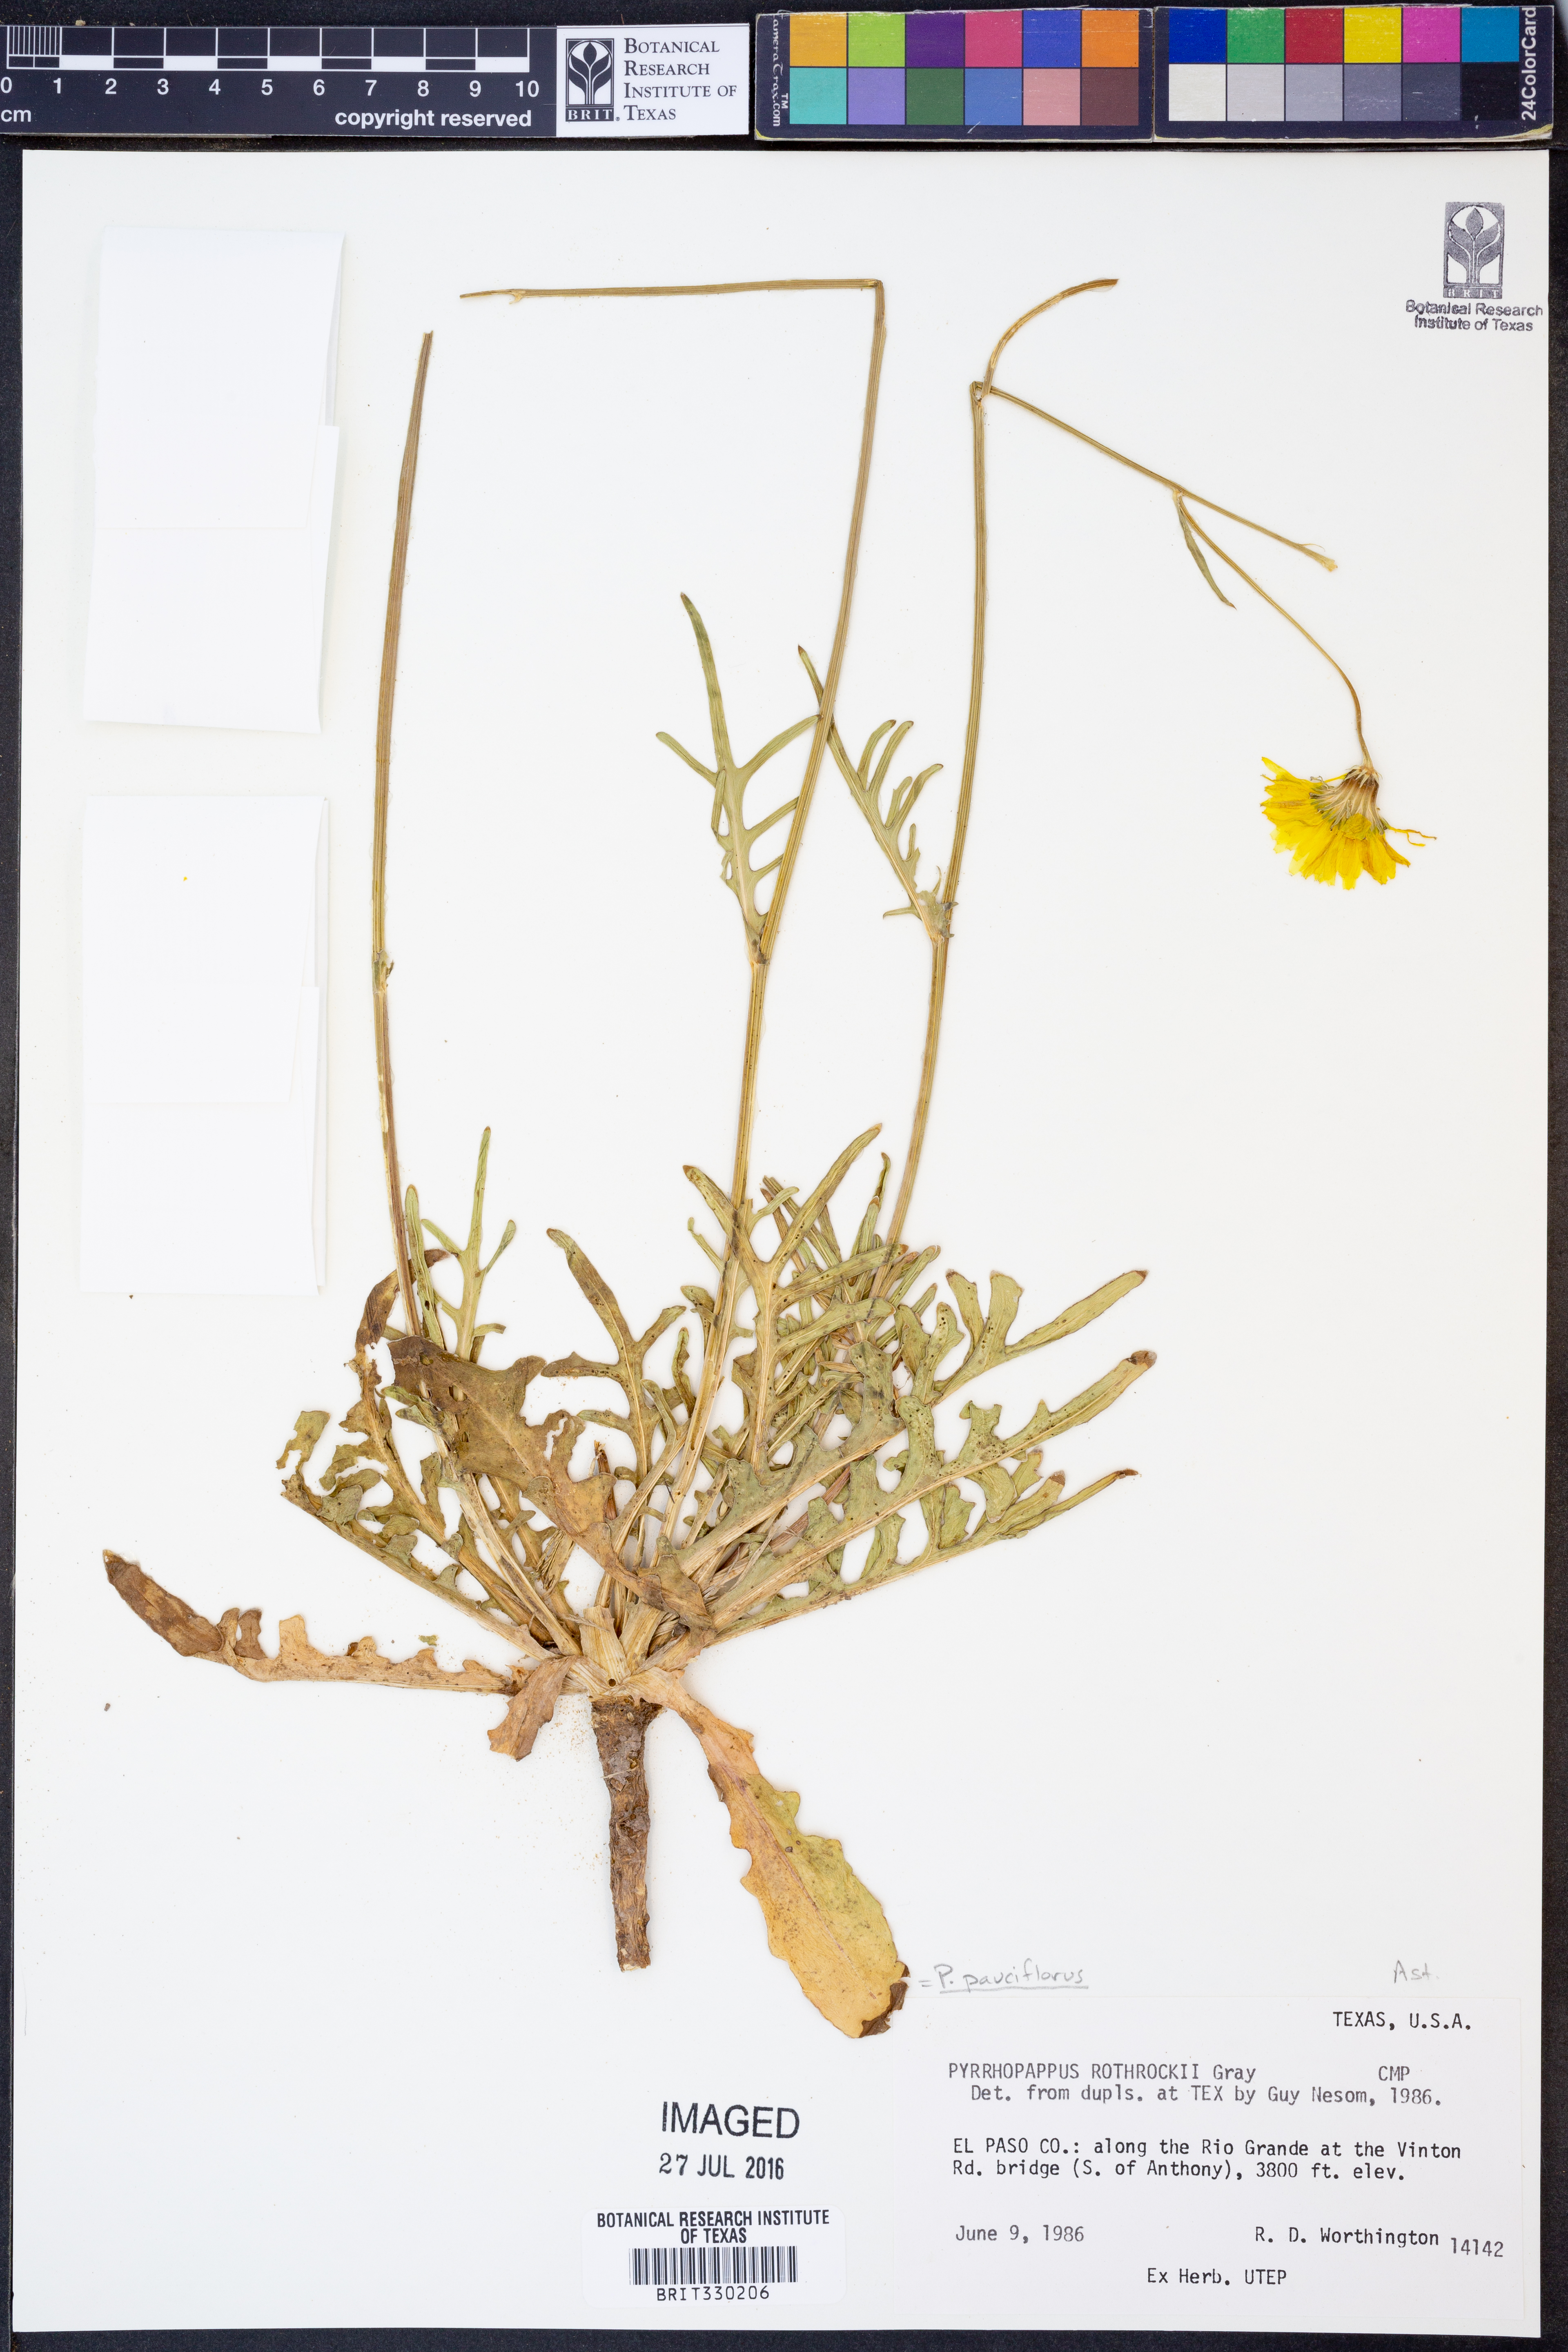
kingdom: Plantae
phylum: Tracheophyta
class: Magnoliopsida
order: Asterales
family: Asteraceae
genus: Pyrrhopappus
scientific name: Pyrrhopappus pauciflorus
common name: Texas false dandelion
